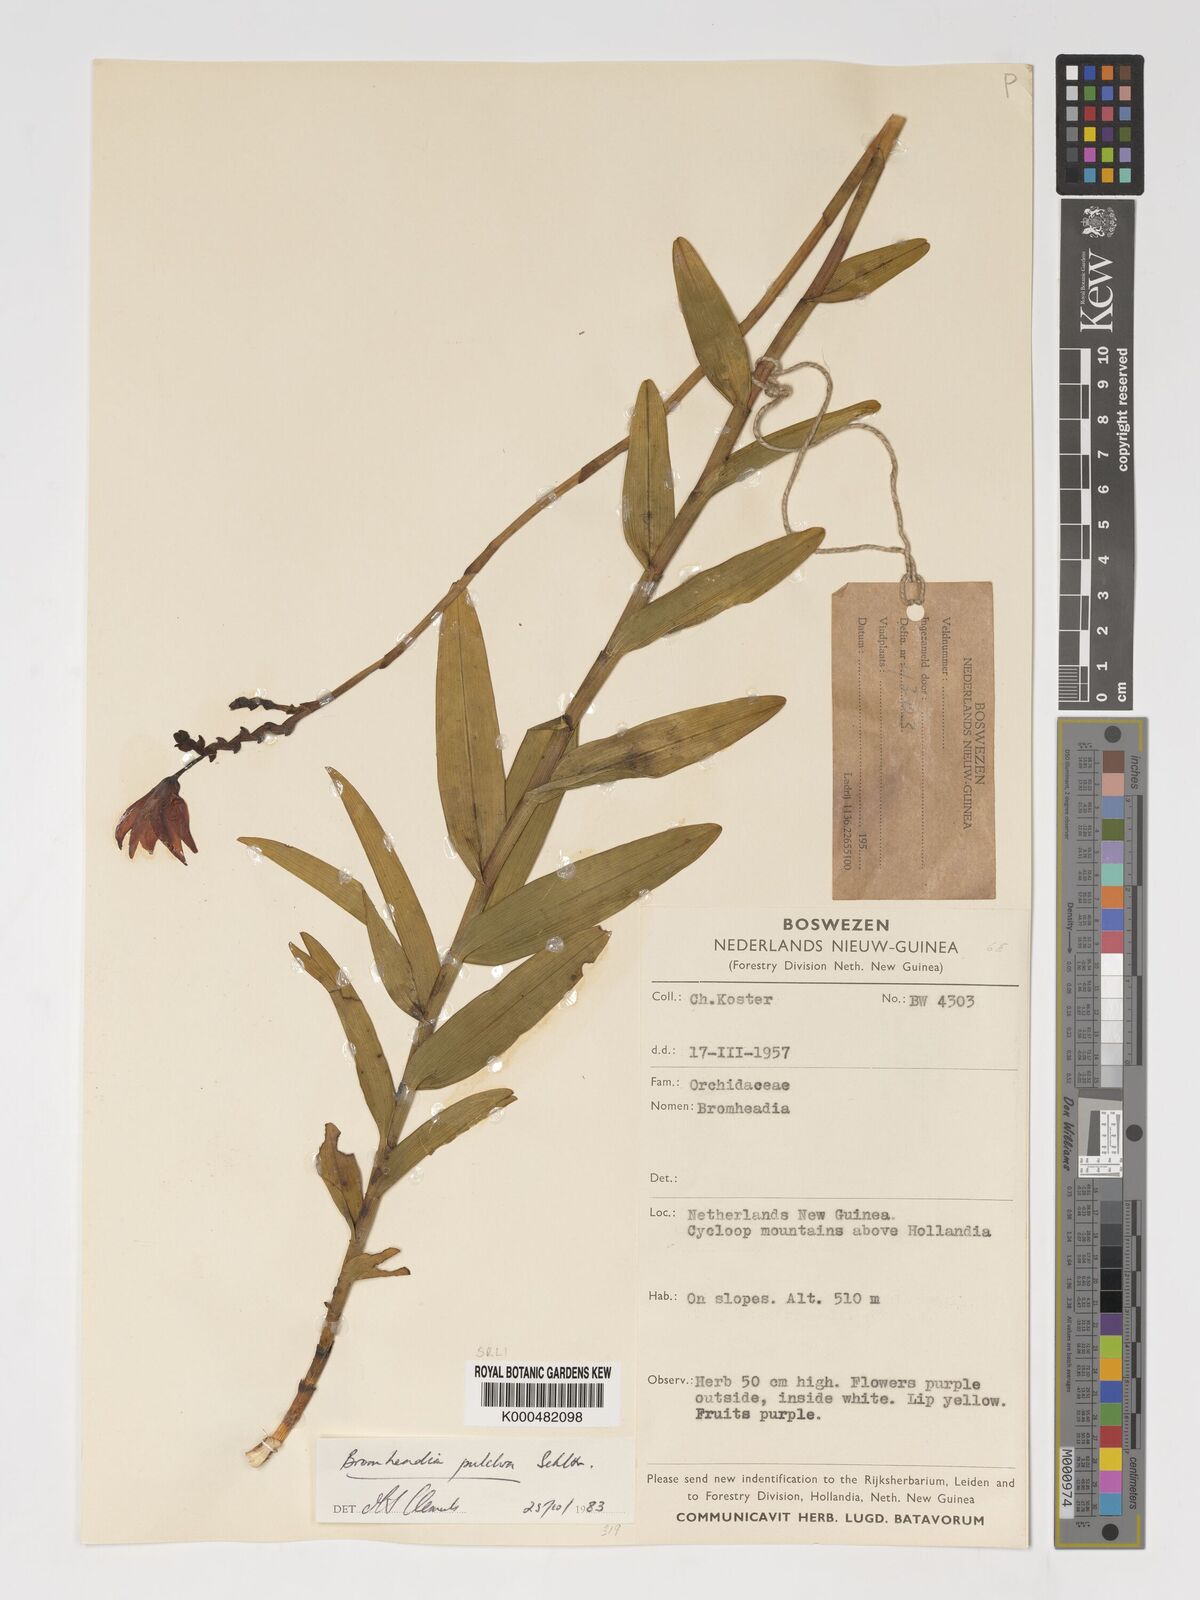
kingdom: Plantae
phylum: Tracheophyta
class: Liliopsida
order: Asparagales
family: Orchidaceae
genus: Bromheadia
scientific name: Bromheadia finlaysoniana
